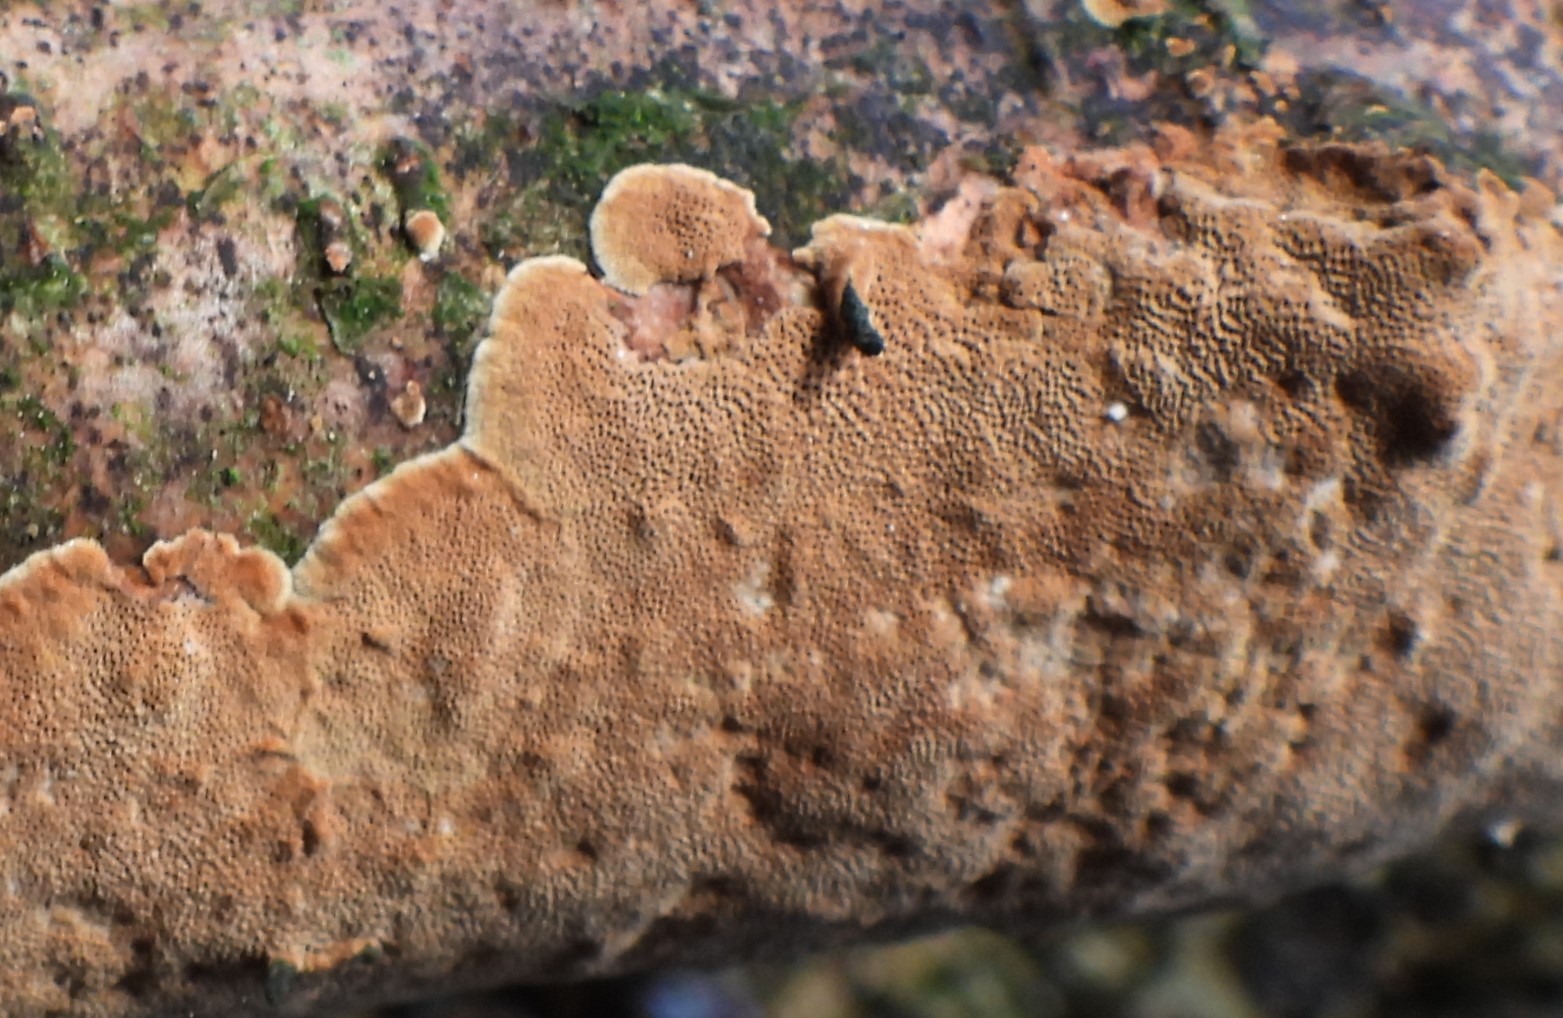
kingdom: Fungi
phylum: Basidiomycota
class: Agaricomycetes
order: Hymenochaetales
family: Hymenochaetaceae
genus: Fuscoporia
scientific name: Fuscoporia ferrea
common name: skorpe-ildporesvamp
